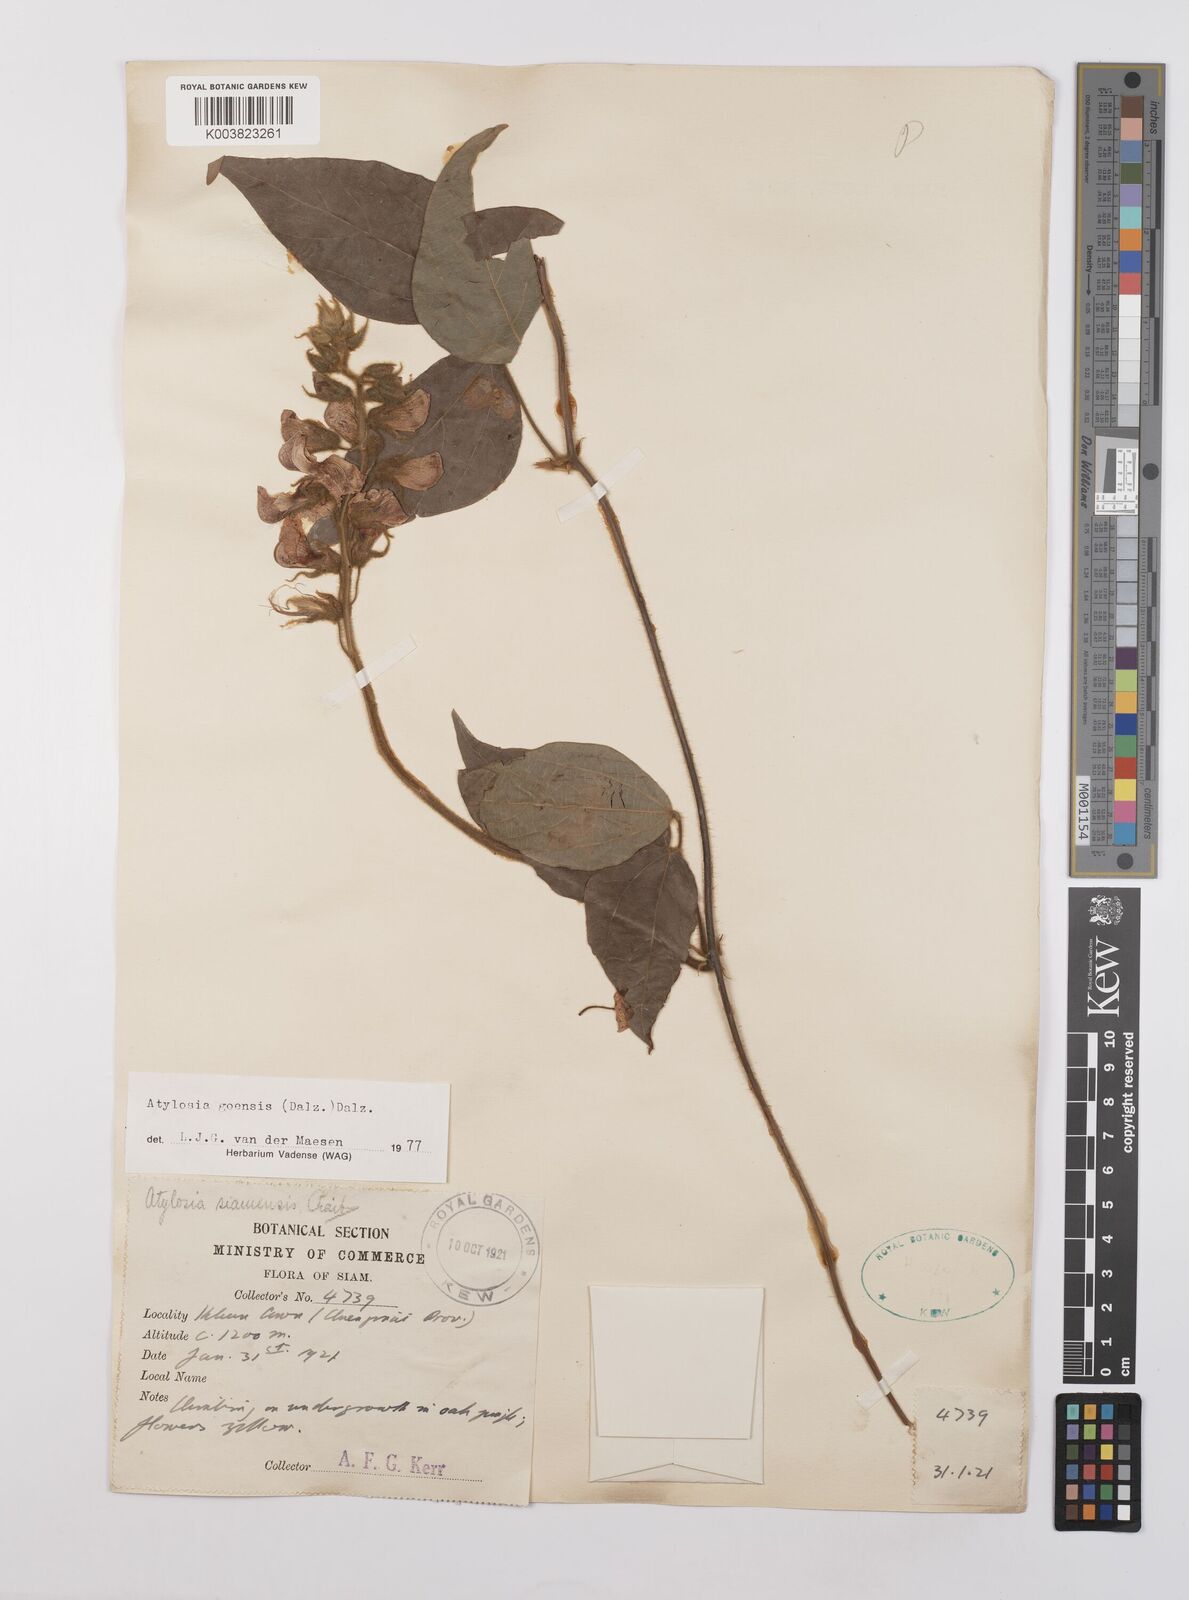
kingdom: Plantae
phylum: Tracheophyta
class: Magnoliopsida
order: Fabales
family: Fabaceae
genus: Cajanus
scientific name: Cajanus goensis
